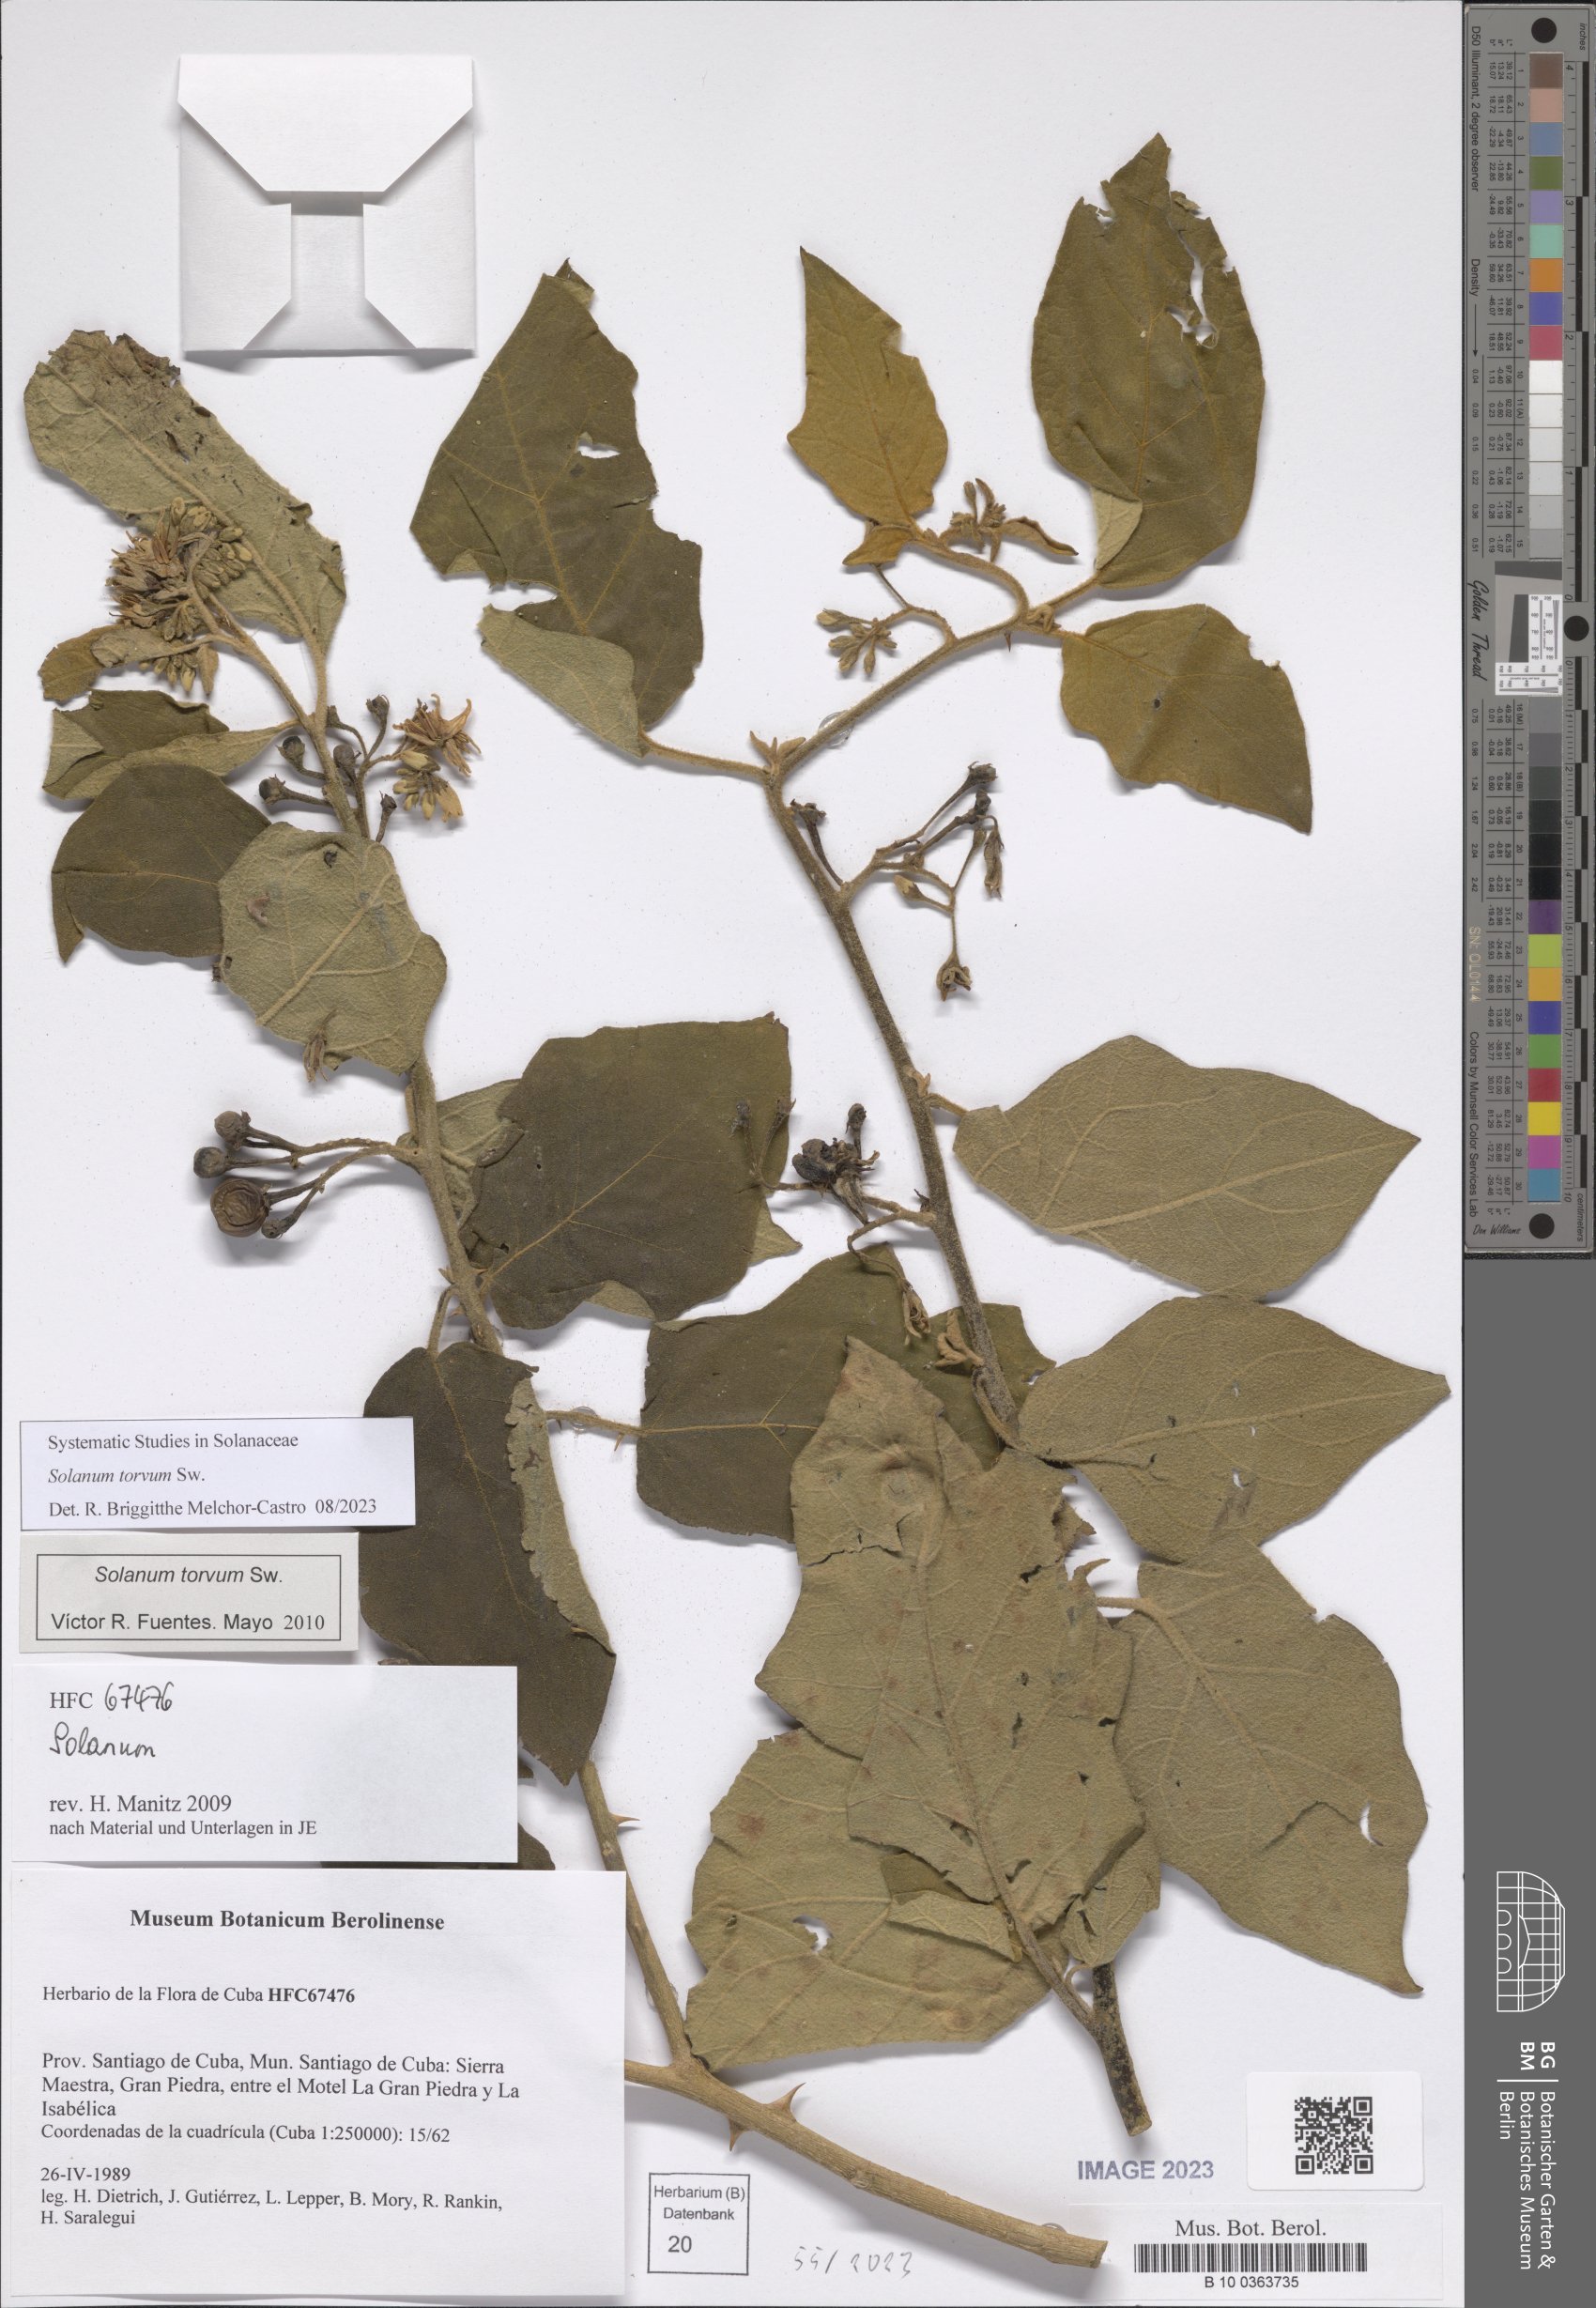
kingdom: Plantae
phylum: Tracheophyta
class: Magnoliopsida
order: Solanales
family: Solanaceae
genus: Solanum
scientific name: Solanum torvum
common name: Turkey berry
